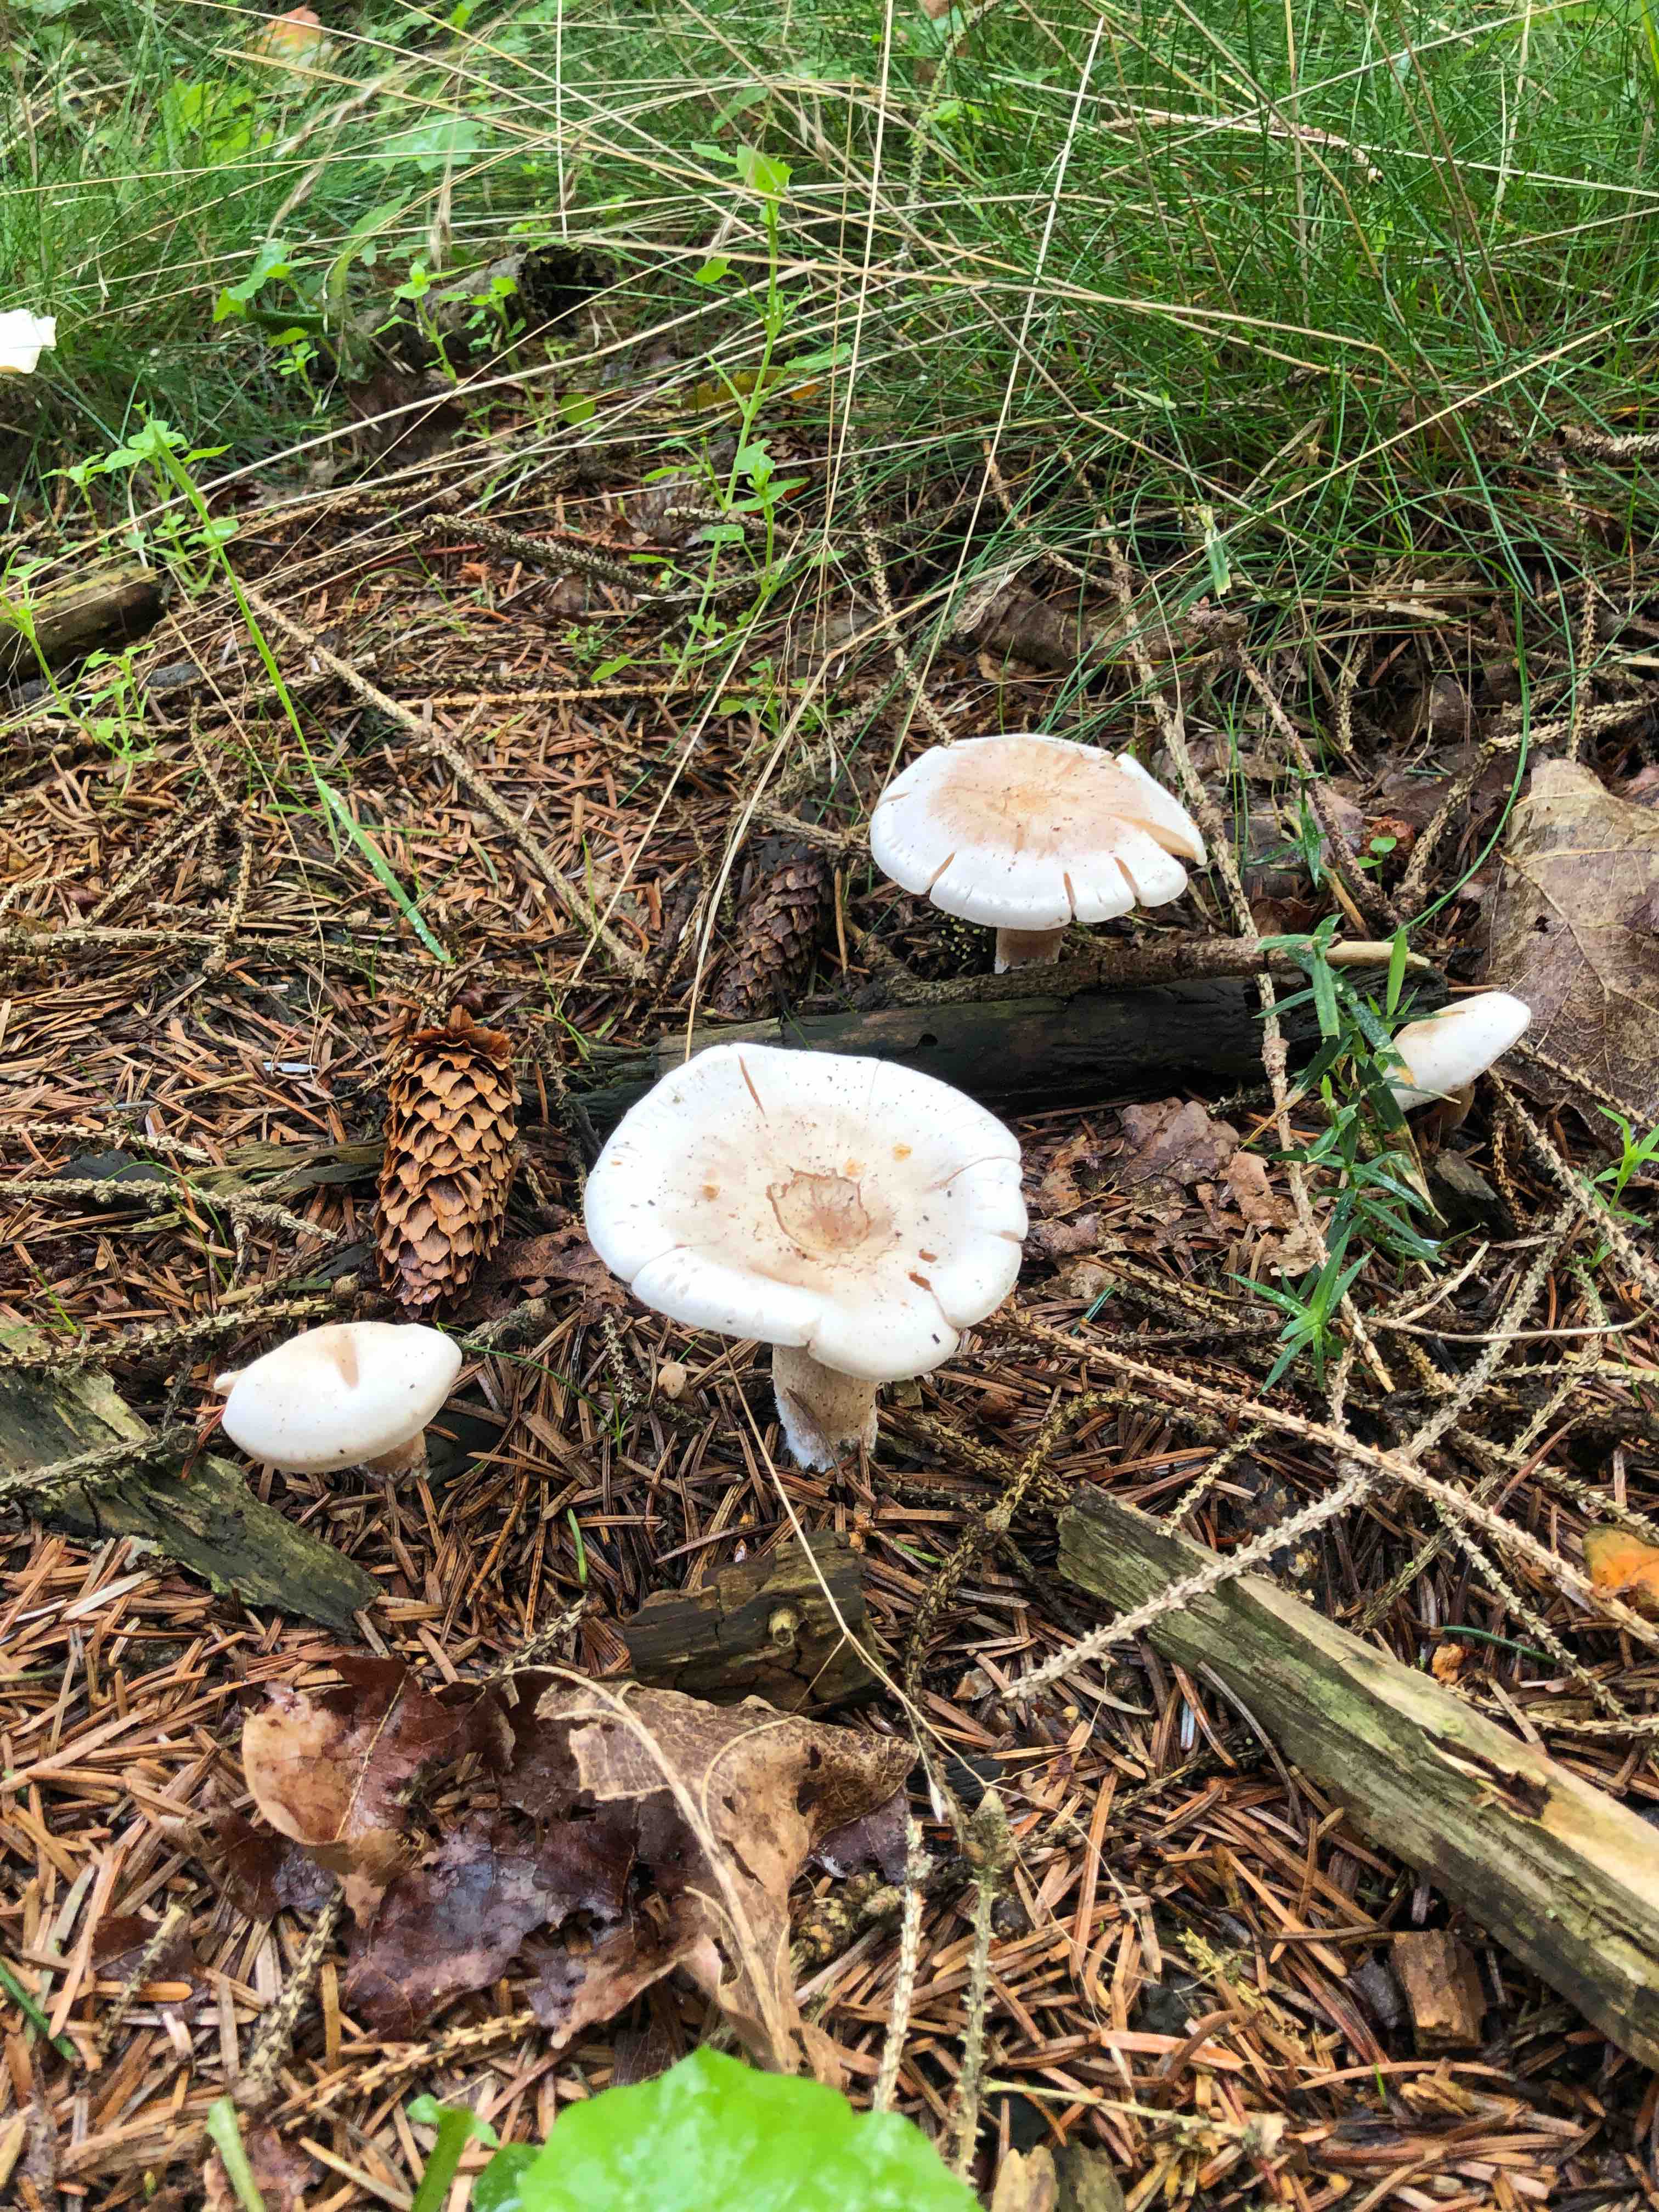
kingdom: Fungi
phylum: Basidiomycota
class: Agaricomycetes
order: Agaricales
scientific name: Agaricales
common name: champignonordenen
